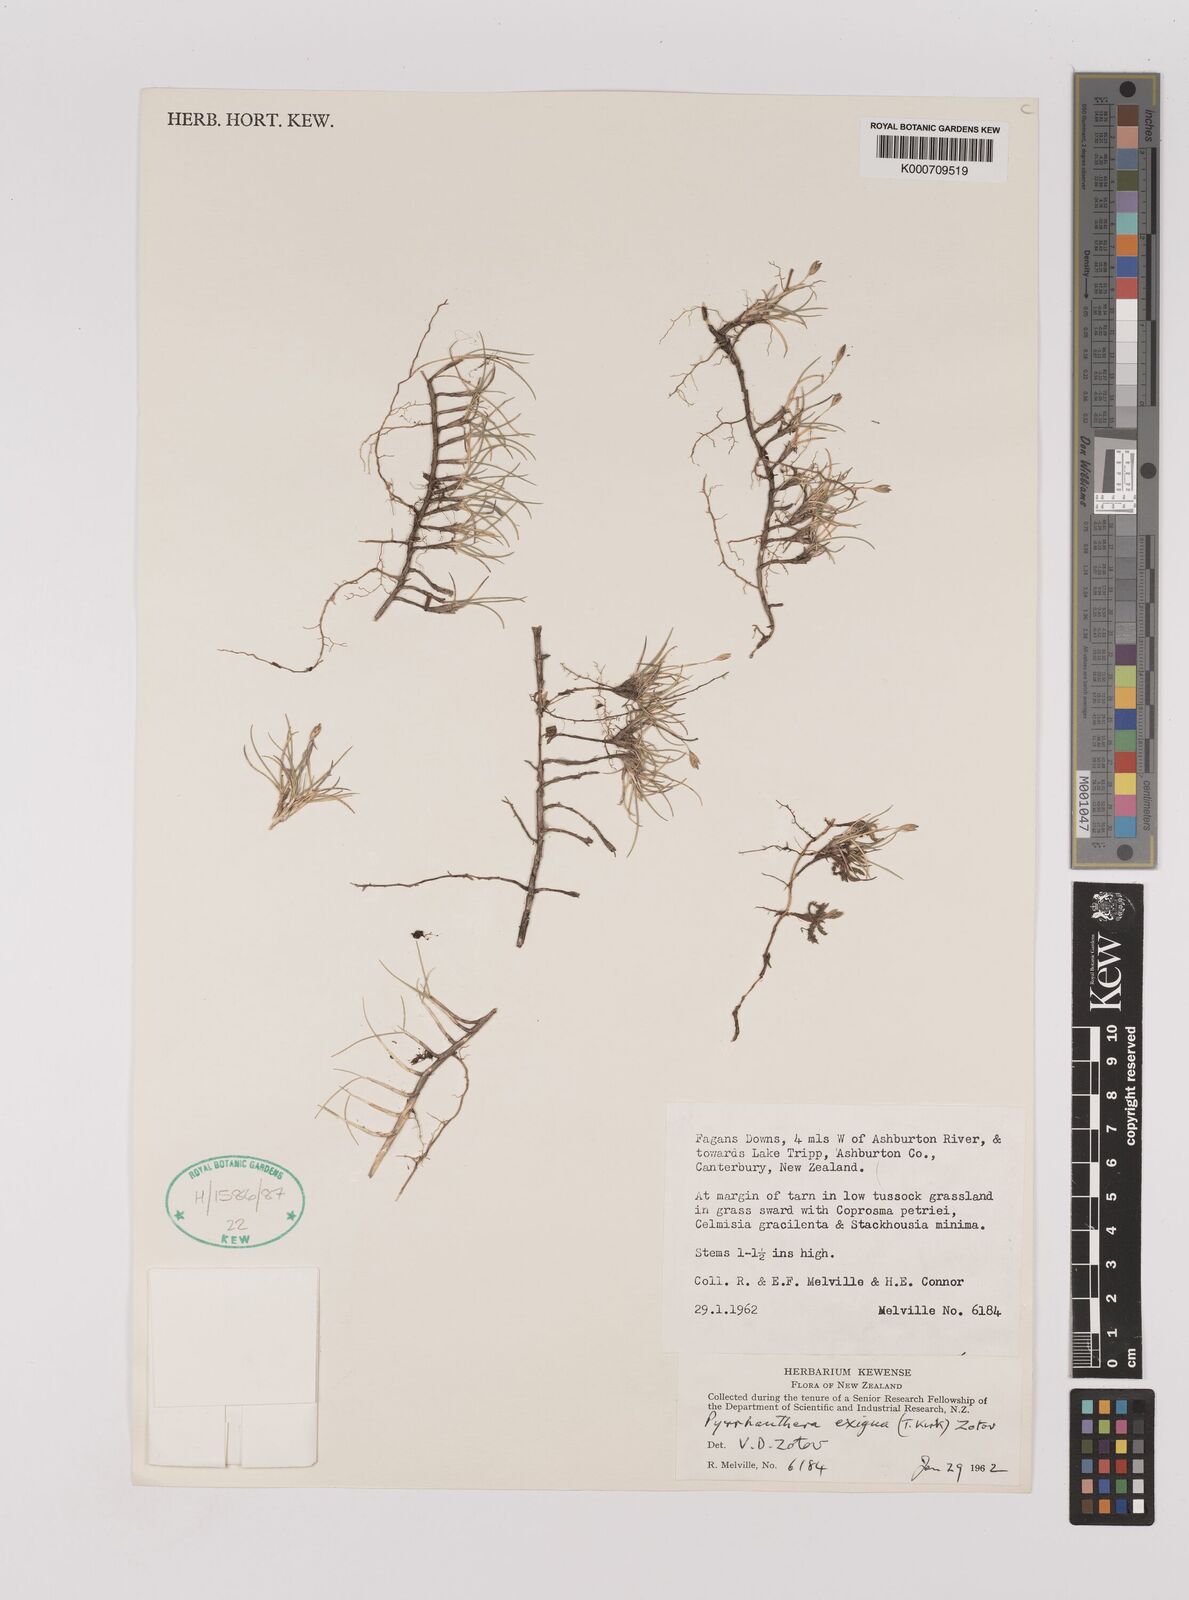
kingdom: Plantae
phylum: Tracheophyta
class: Liliopsida
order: Poales
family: Poaceae
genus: Rytidosperma
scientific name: Rytidosperma exiguum
